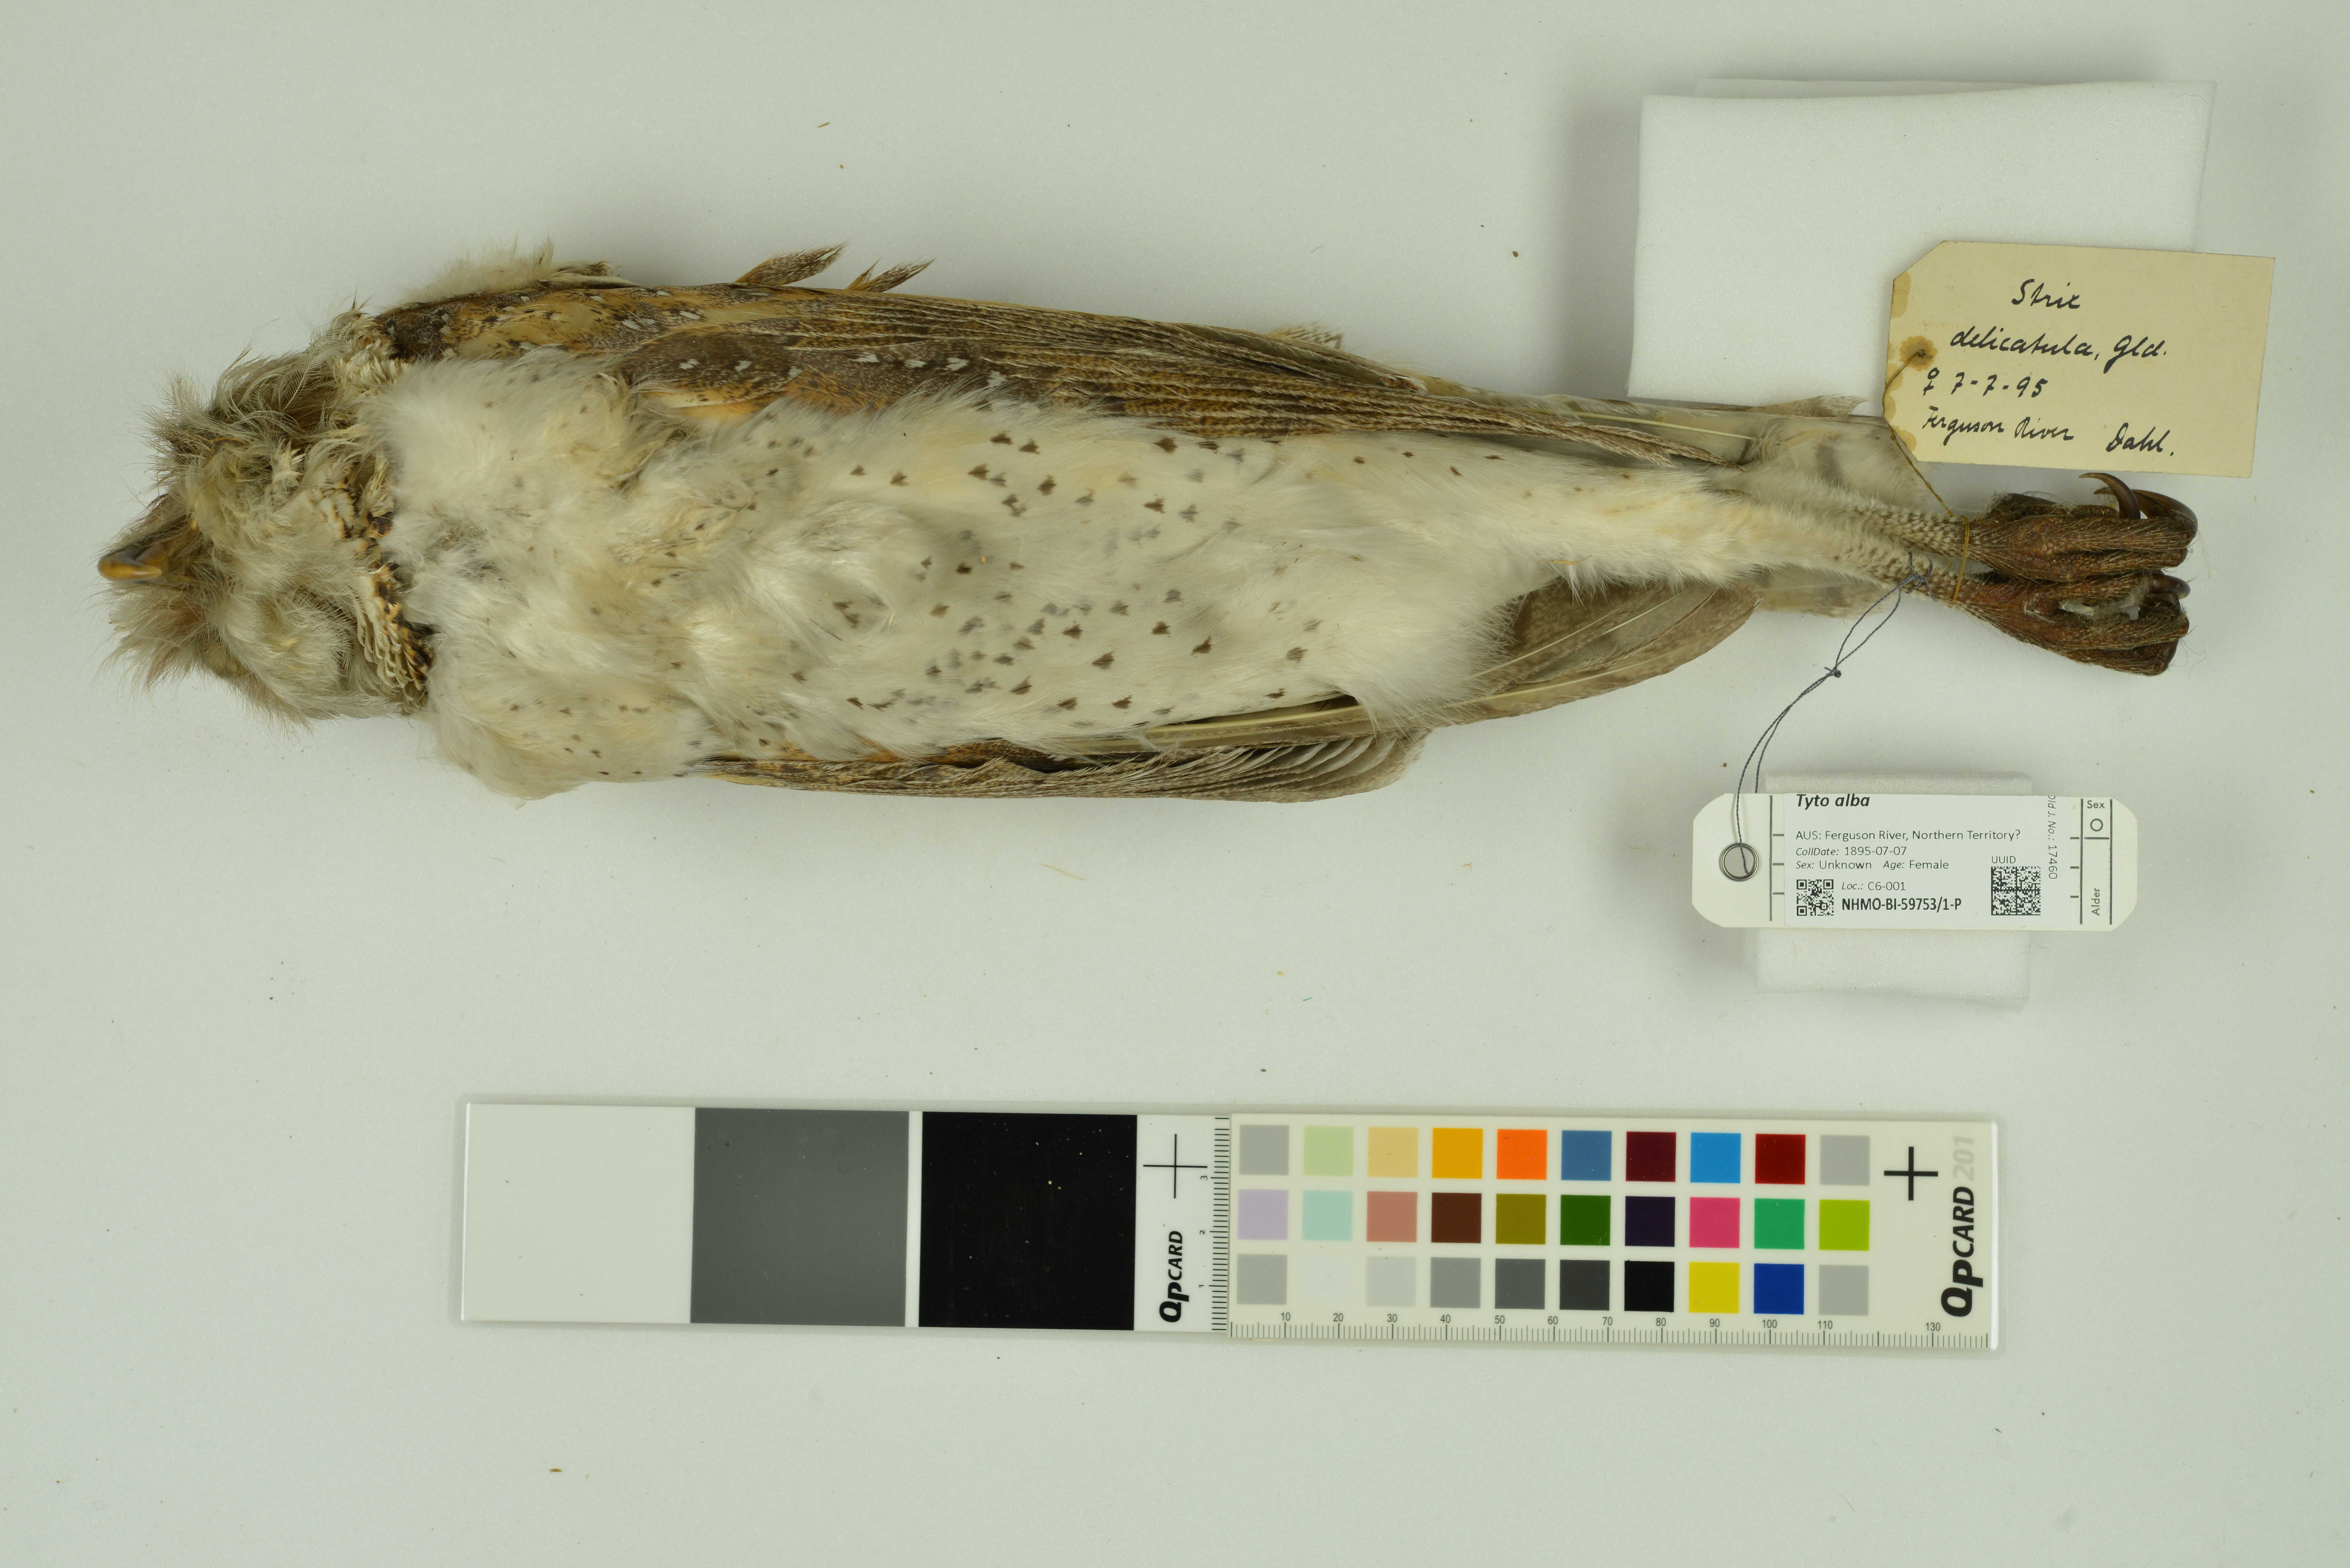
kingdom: Animalia
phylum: Chordata
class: Aves
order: Strigiformes
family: Tytonidae
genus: Tyto
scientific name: Tyto alba
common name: Barn owl
